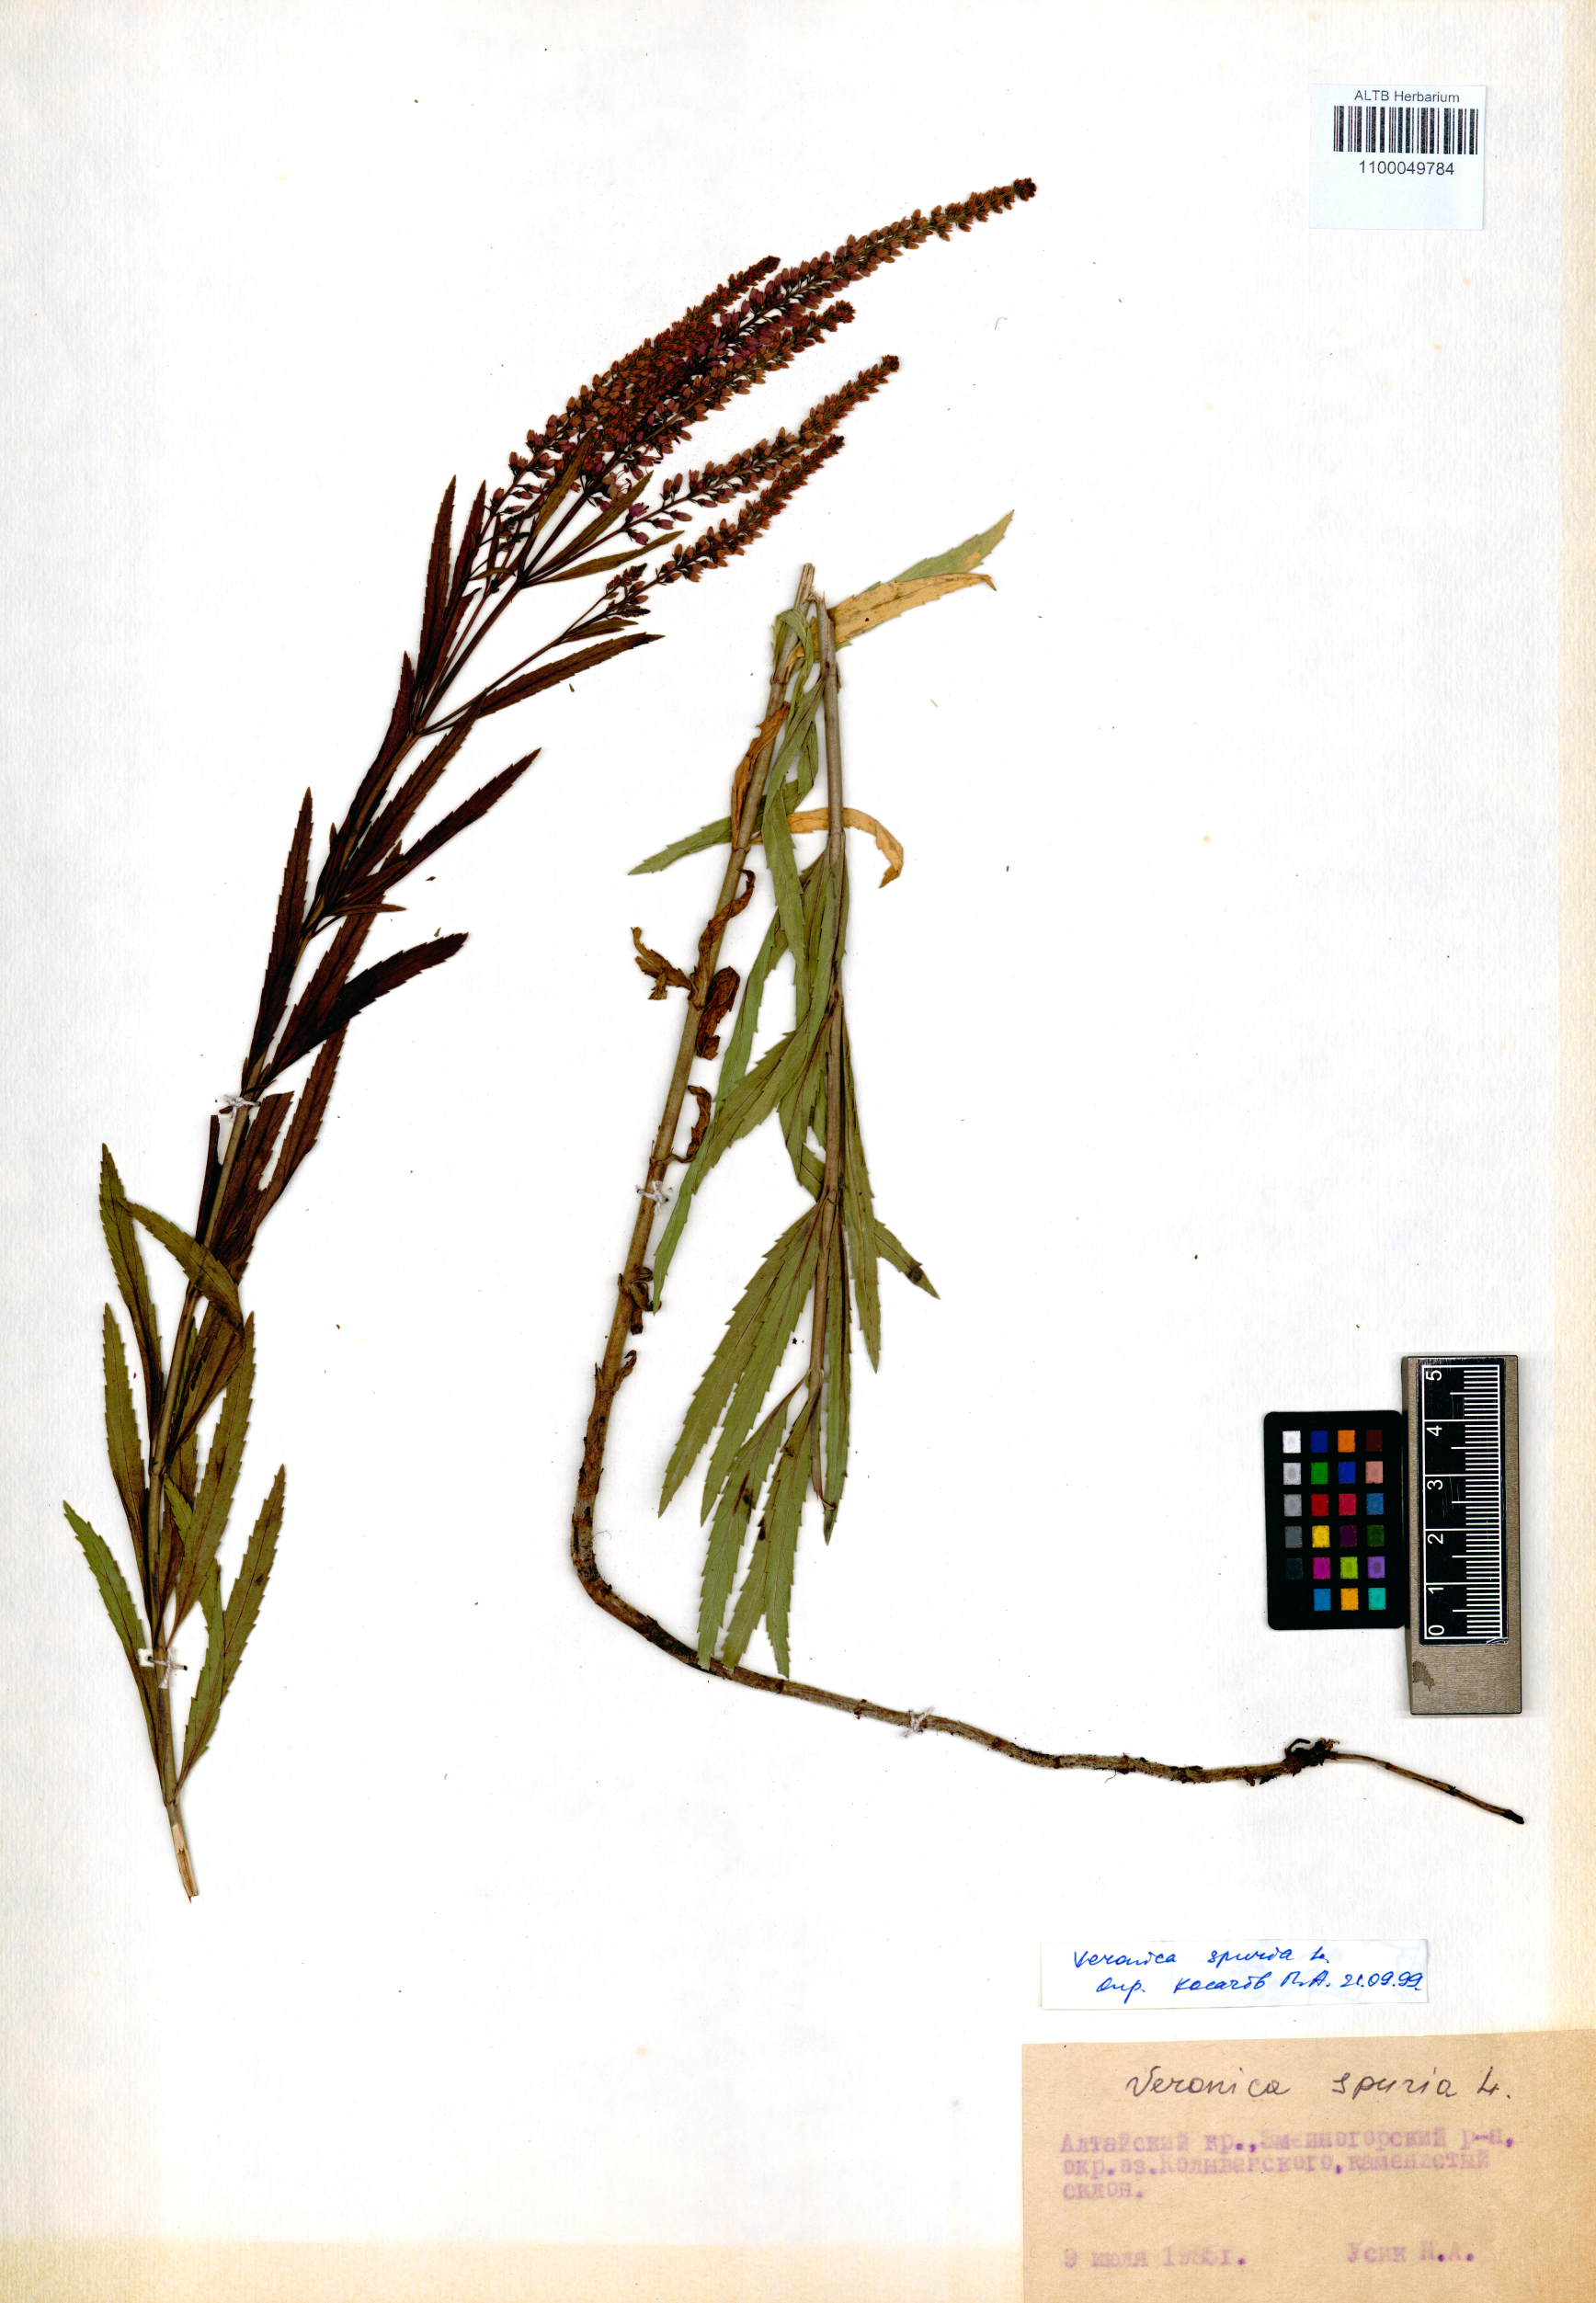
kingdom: Plantae
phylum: Tracheophyta
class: Magnoliopsida
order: Lamiales
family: Plantaginaceae
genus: Veronica
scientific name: Veronica spuria
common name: Bastard speedwell
